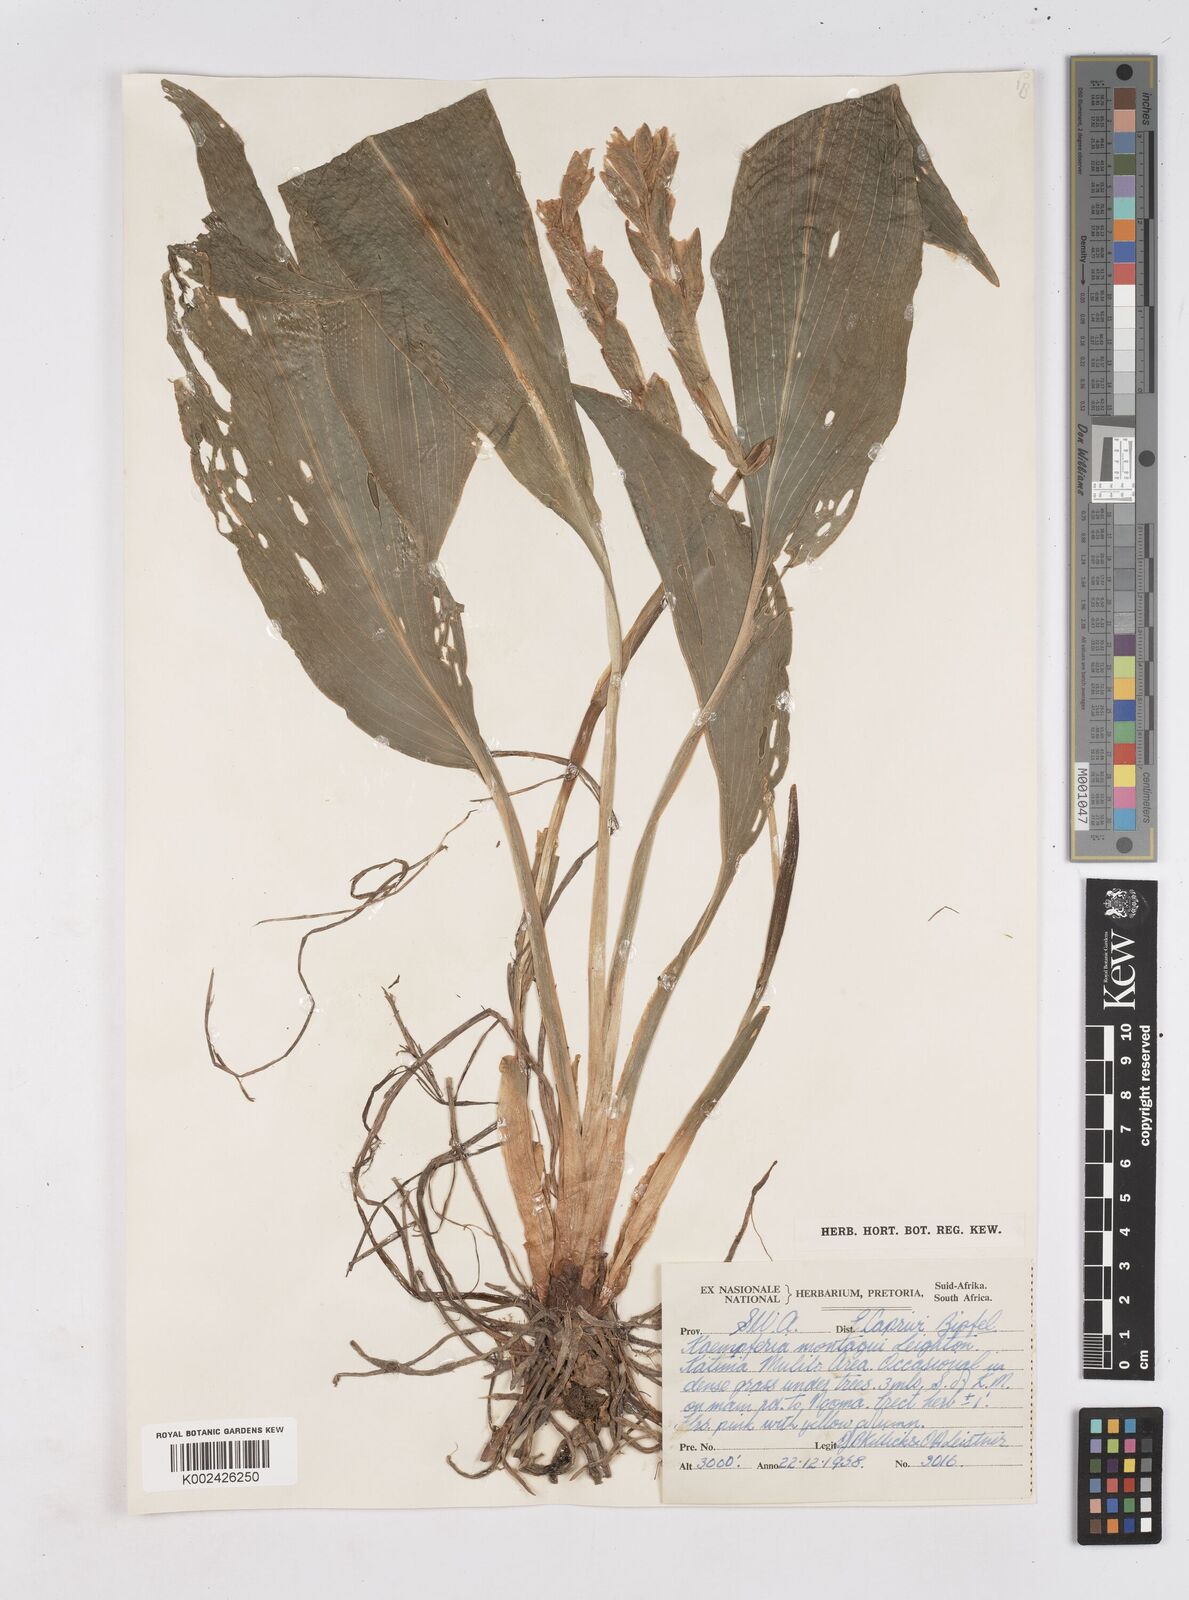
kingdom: Plantae
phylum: Tracheophyta
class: Liliopsida
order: Zingiberales
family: Zingiberaceae
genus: Siphonochilus
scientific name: Siphonochilus
